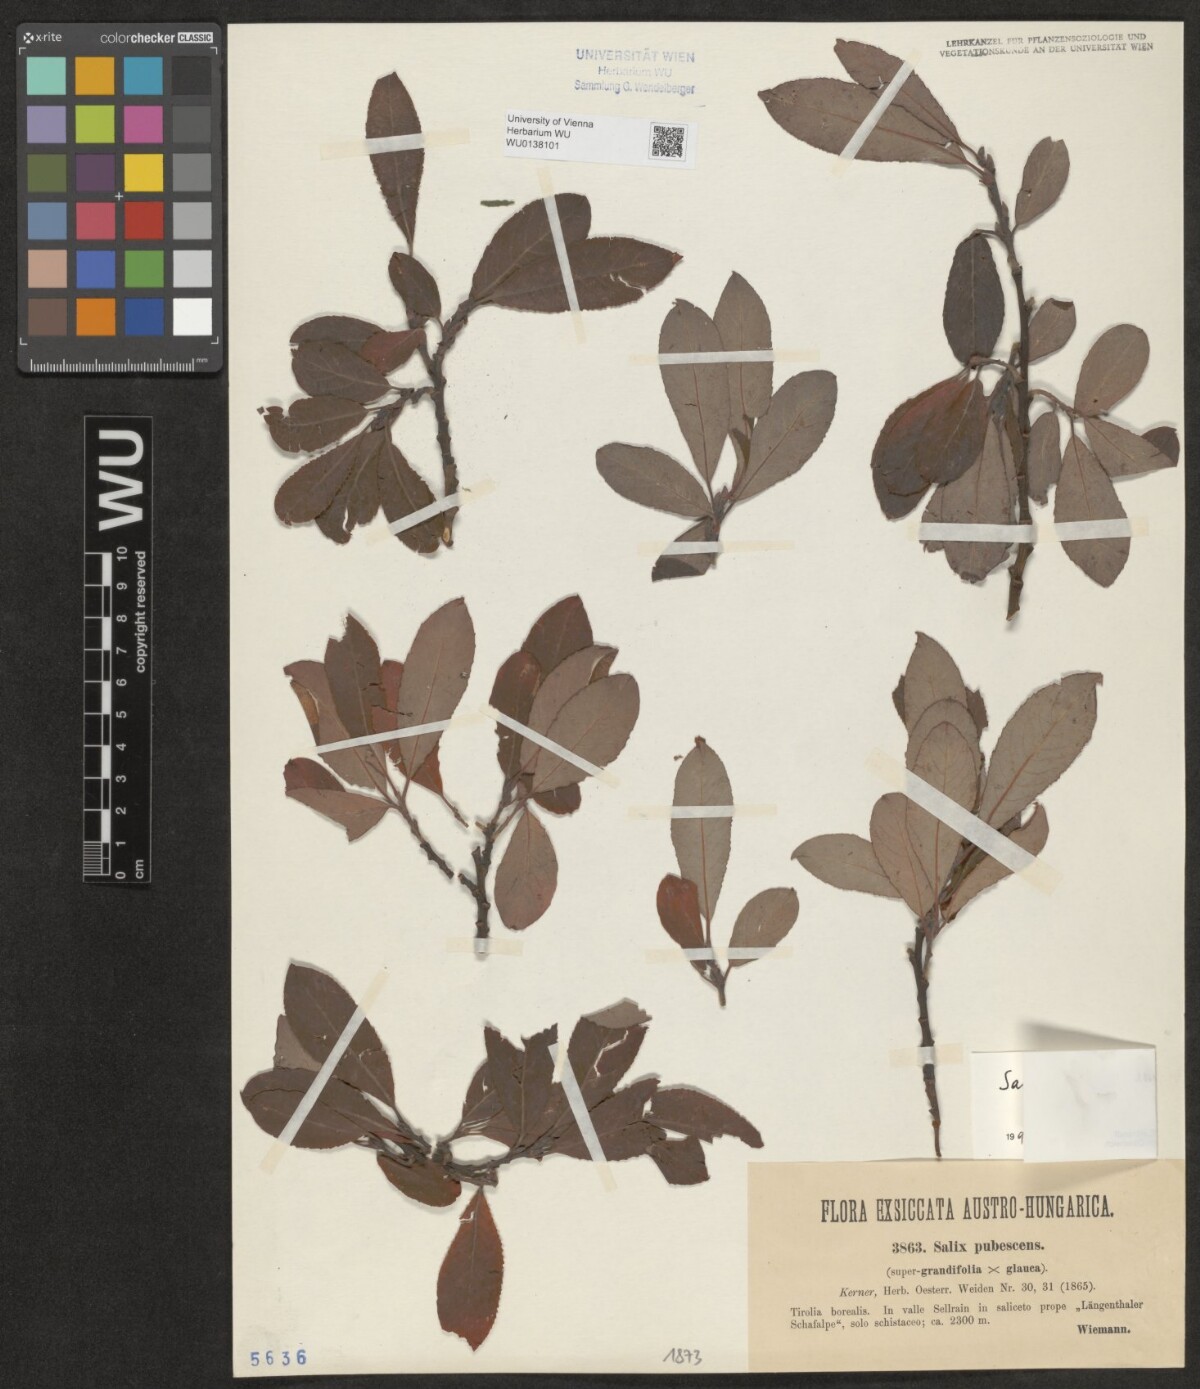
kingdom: Plantae
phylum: Tracheophyta
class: Magnoliopsida
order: Malpighiales
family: Salicaceae
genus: Salix
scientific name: Salix laggeri
